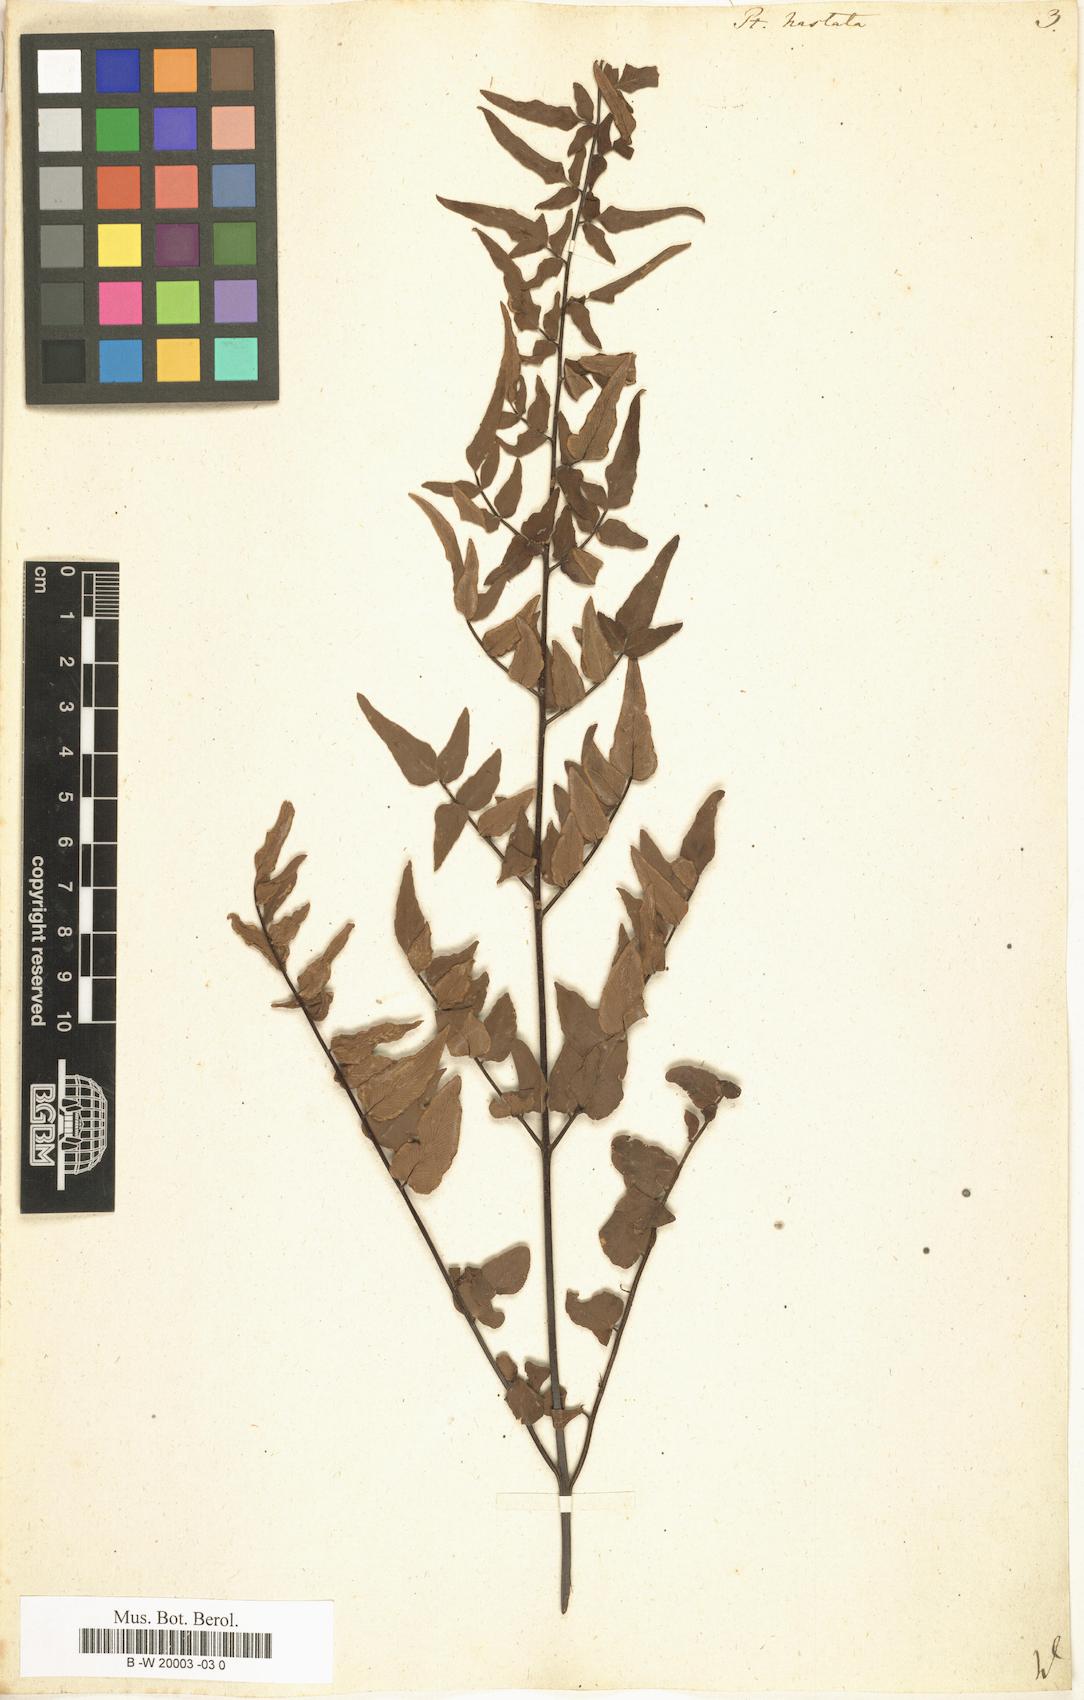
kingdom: Plantae
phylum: Tracheophyta
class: Polypodiopsida
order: Polypodiales
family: Pteridaceae
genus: Pteris
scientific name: Pteris hastata
